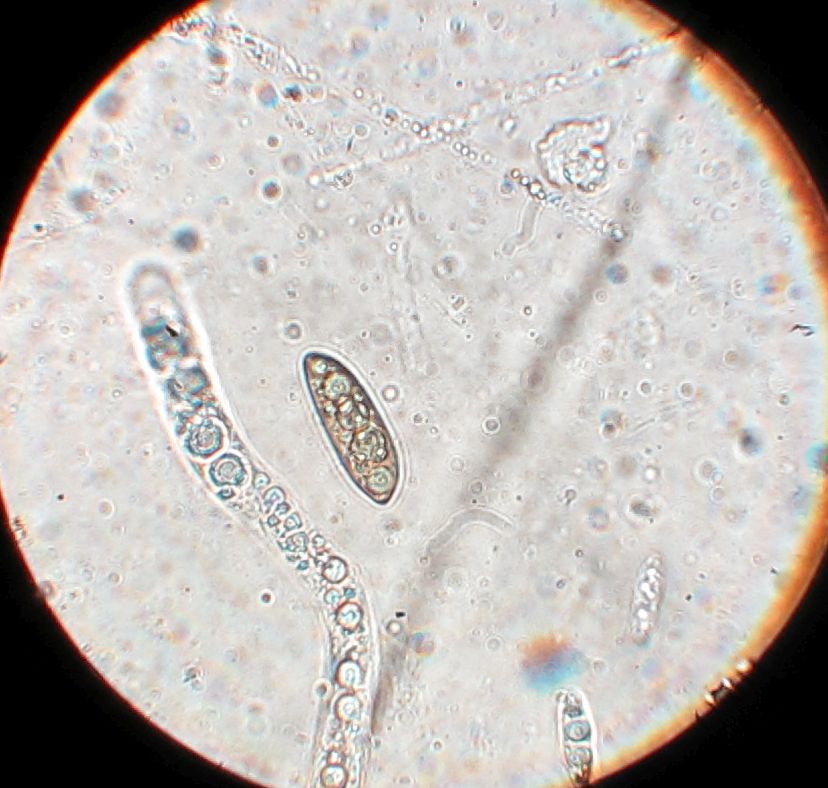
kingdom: Fungi
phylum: Ascomycota
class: Sordariomycetes
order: Xylariales
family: Xylariaceae
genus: Rosellinia
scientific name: Rosellinia
